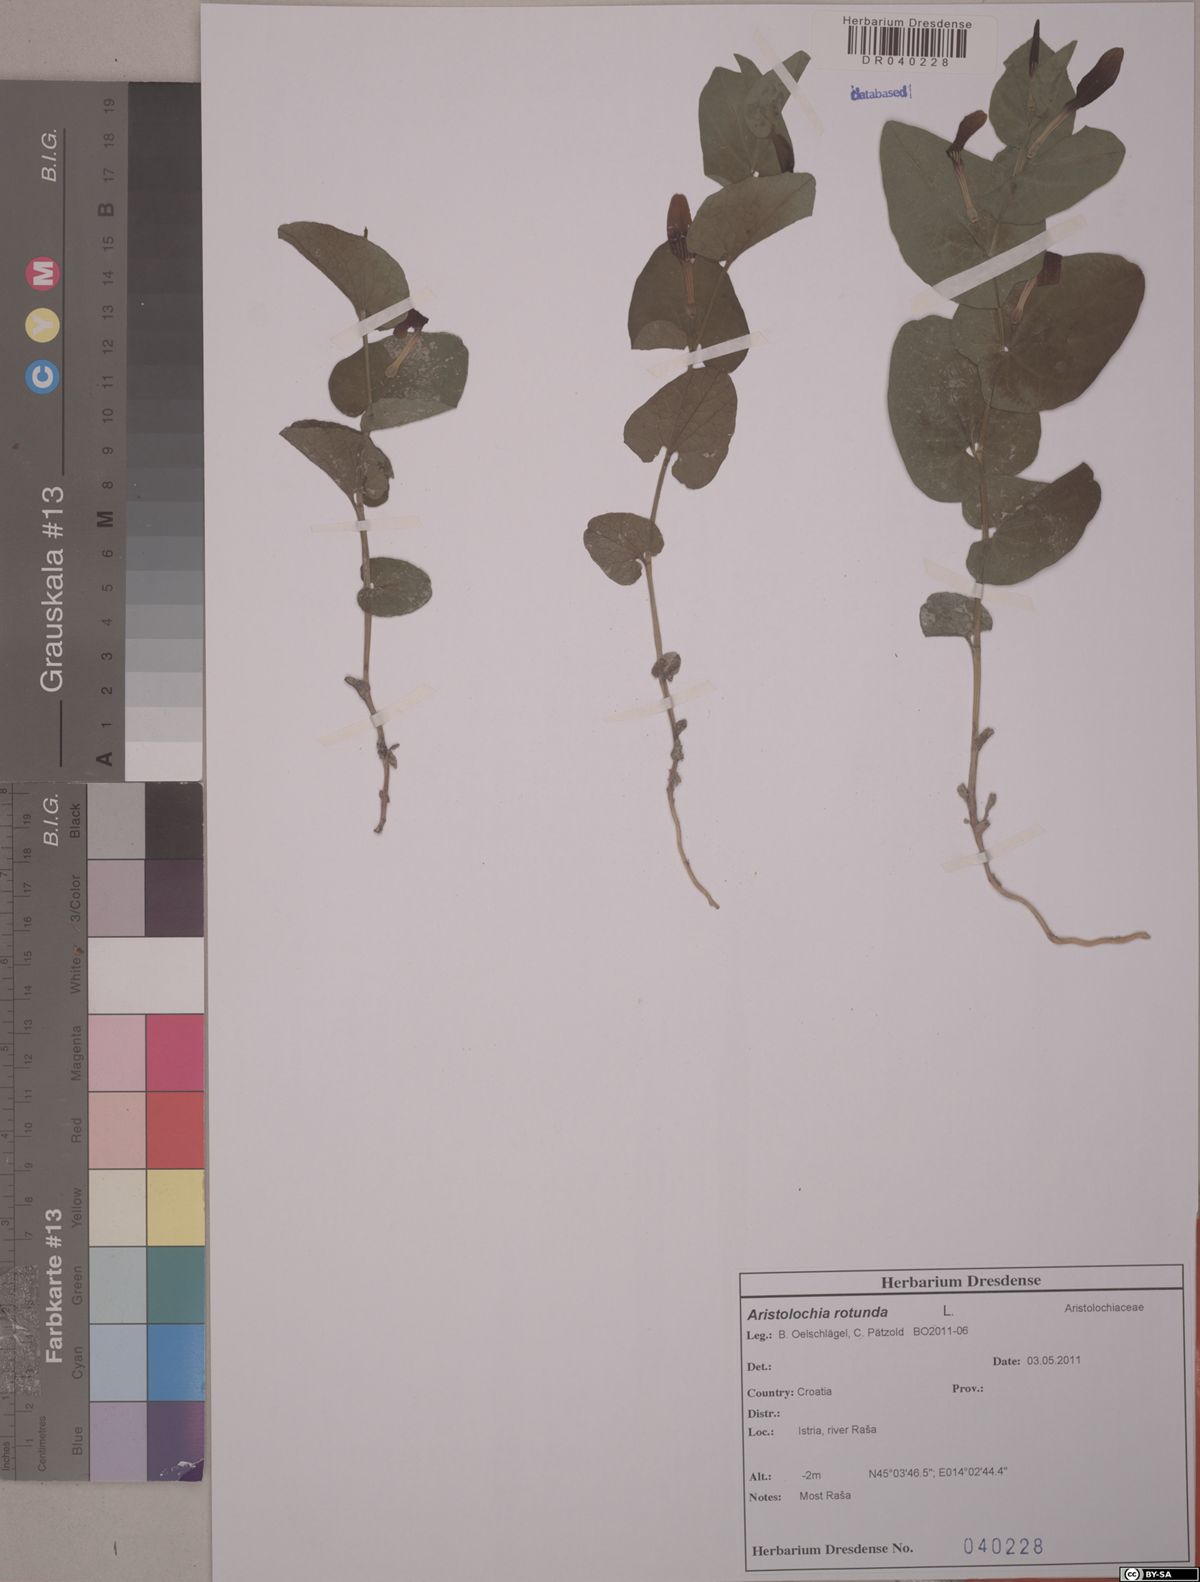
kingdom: Plantae
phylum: Tracheophyta
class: Magnoliopsida
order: Piperales
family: Aristolochiaceae
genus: Aristolochia
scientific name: Aristolochia rotunda
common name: Smearwort
